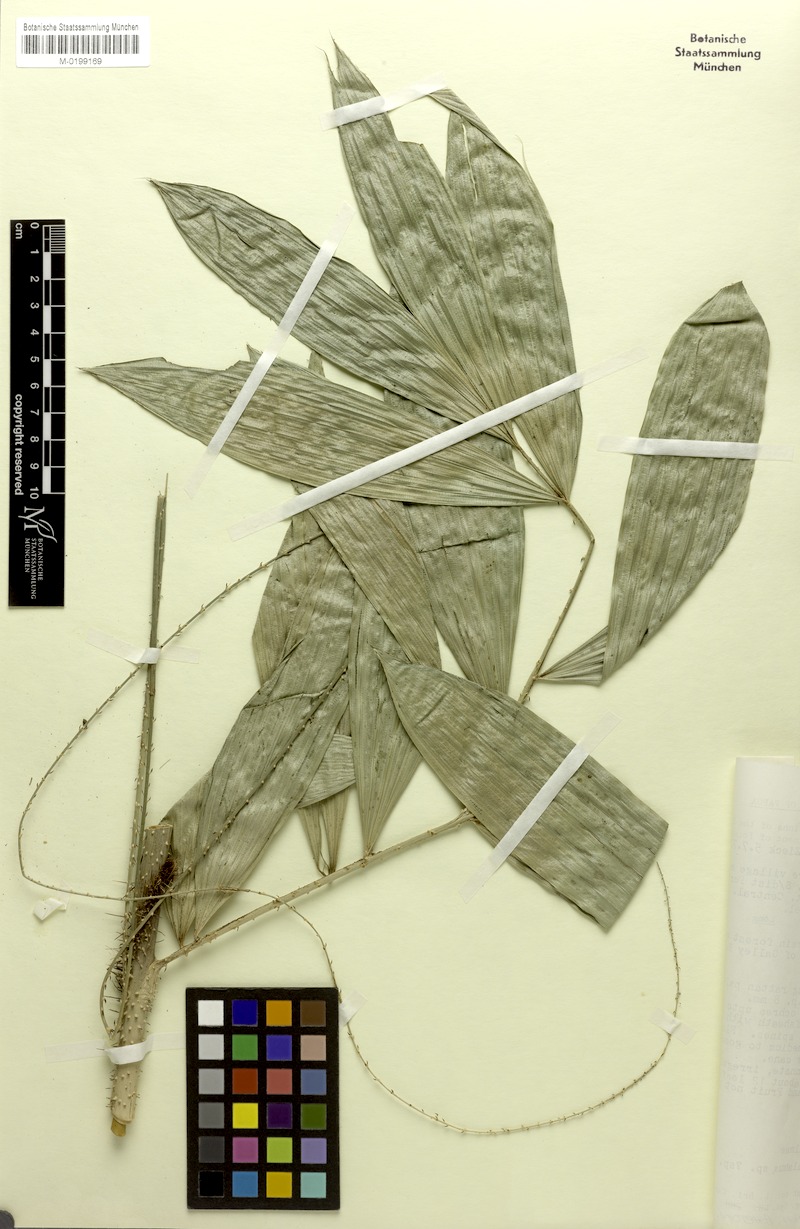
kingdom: Plantae
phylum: Tracheophyta
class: Liliopsida
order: Arecales
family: Arecaceae
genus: Calamus
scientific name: Calamus lucysmithiae
